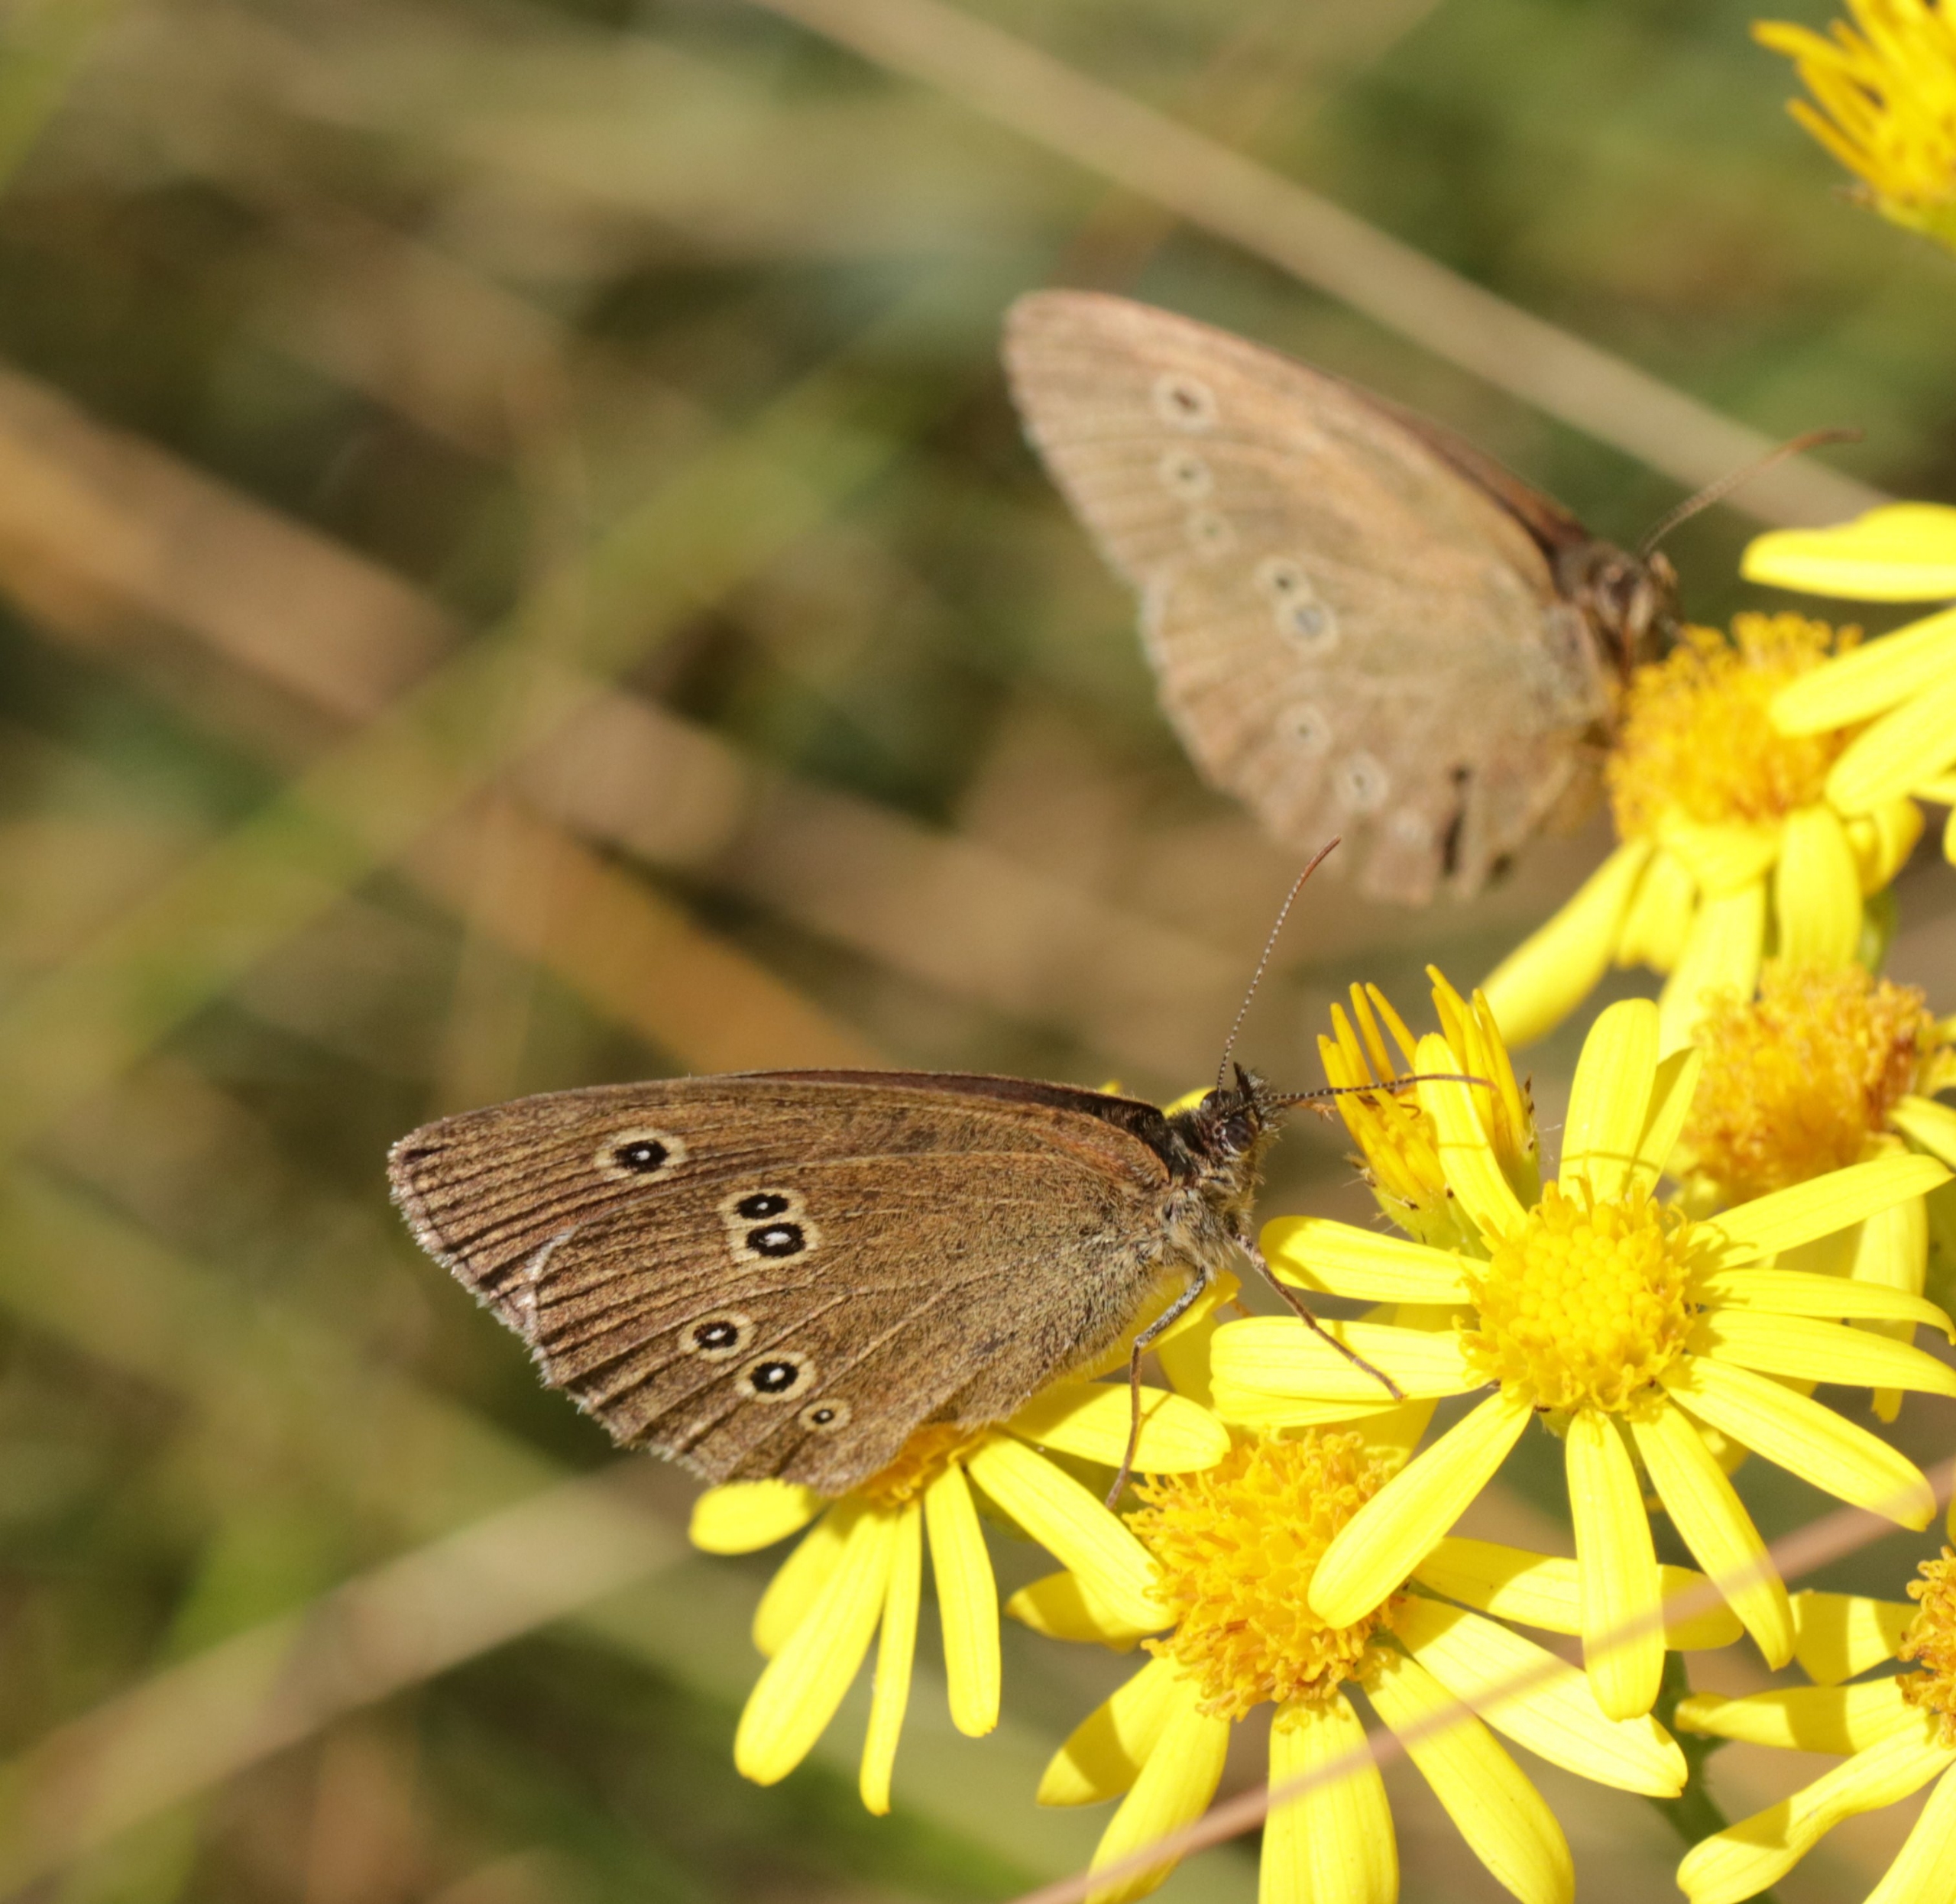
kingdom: Animalia
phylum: Arthropoda
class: Insecta
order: Lepidoptera
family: Nymphalidae
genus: Aphantopus
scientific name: Aphantopus hyperantus
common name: Engrandøje
